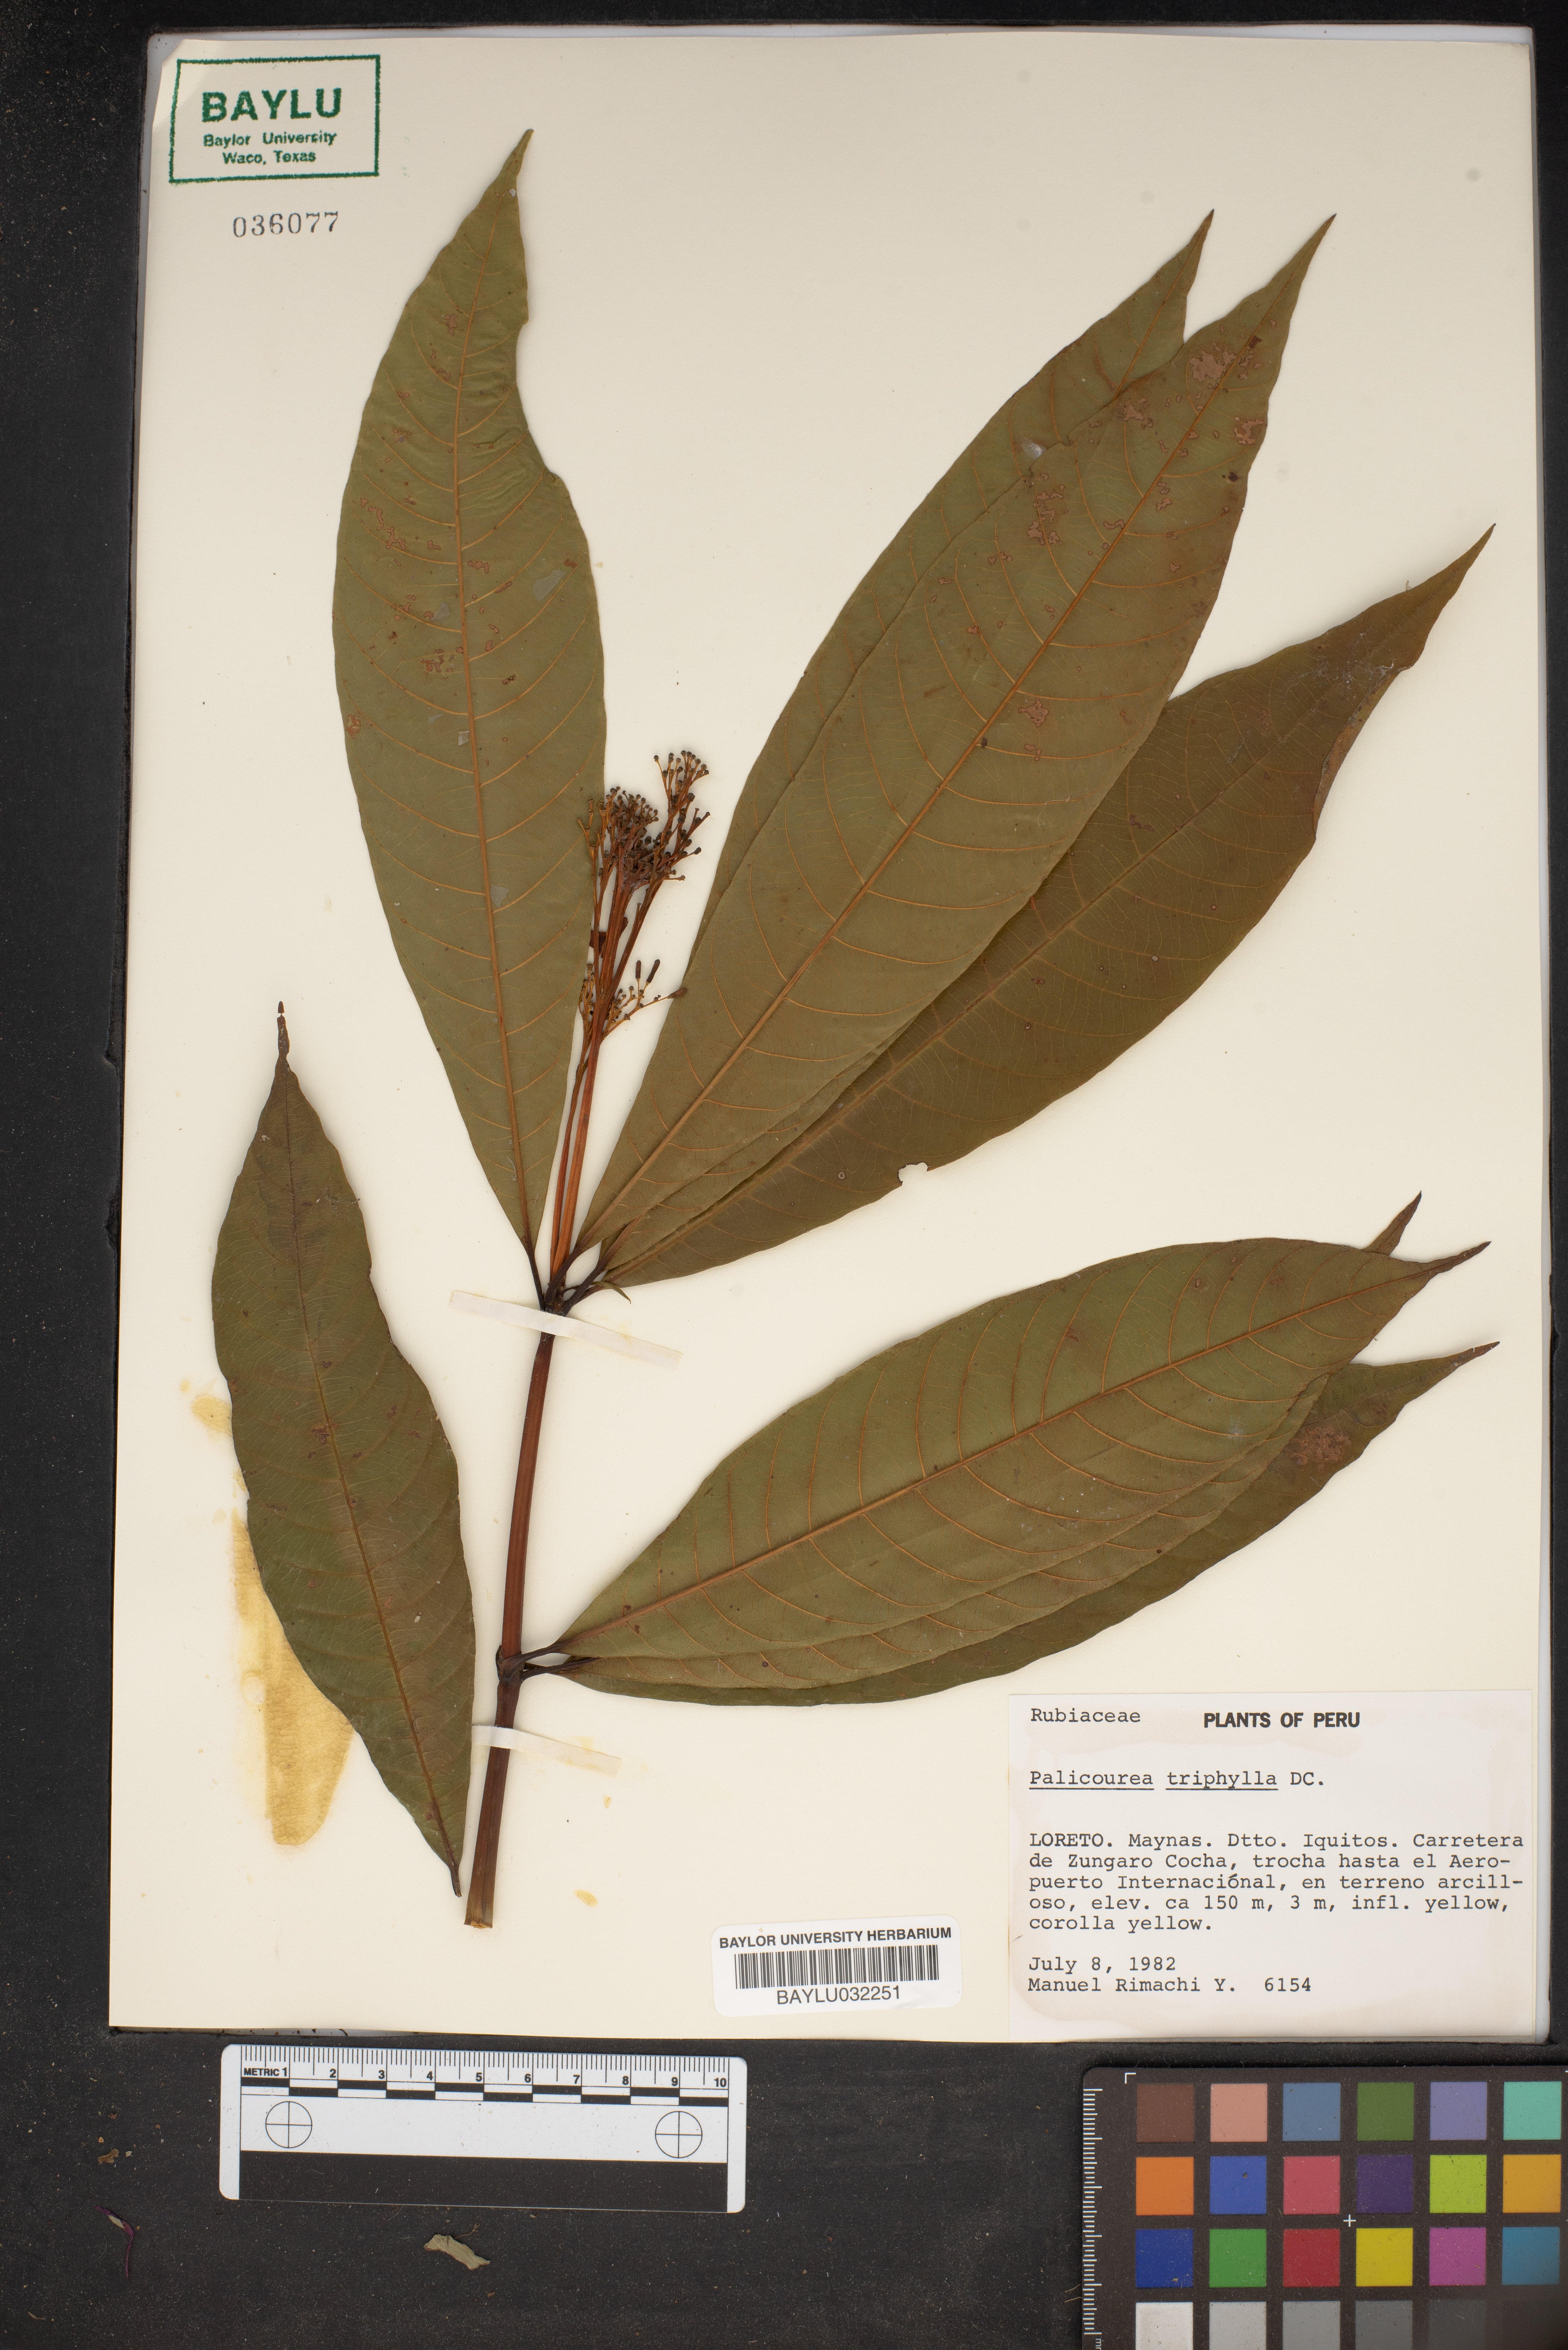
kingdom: Plantae
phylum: Tracheophyta
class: Magnoliopsida
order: Gentianales
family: Rubiaceae
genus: Palicourea
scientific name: Palicourea triphylla
